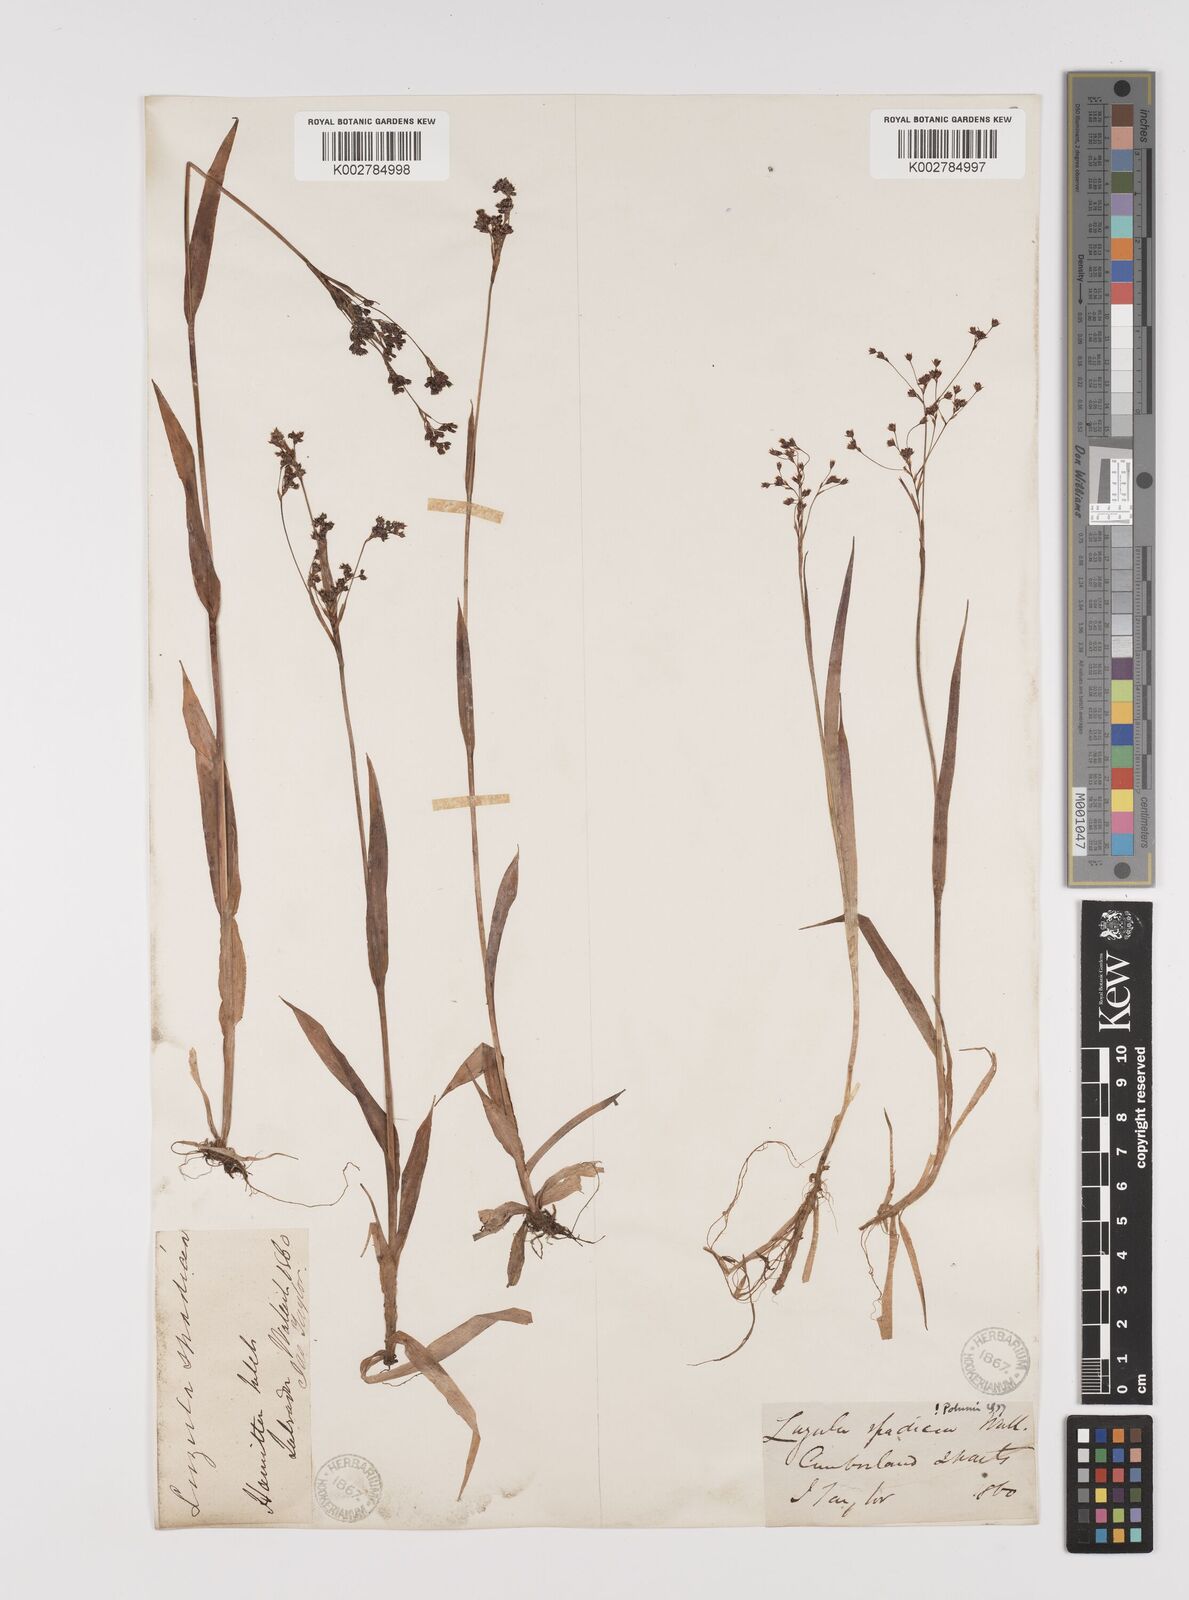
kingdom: Plantae
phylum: Tracheophyta
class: Liliopsida
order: Poales
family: Juncaceae
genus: Luzula
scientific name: Luzula parviflora
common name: Millet woodrush
